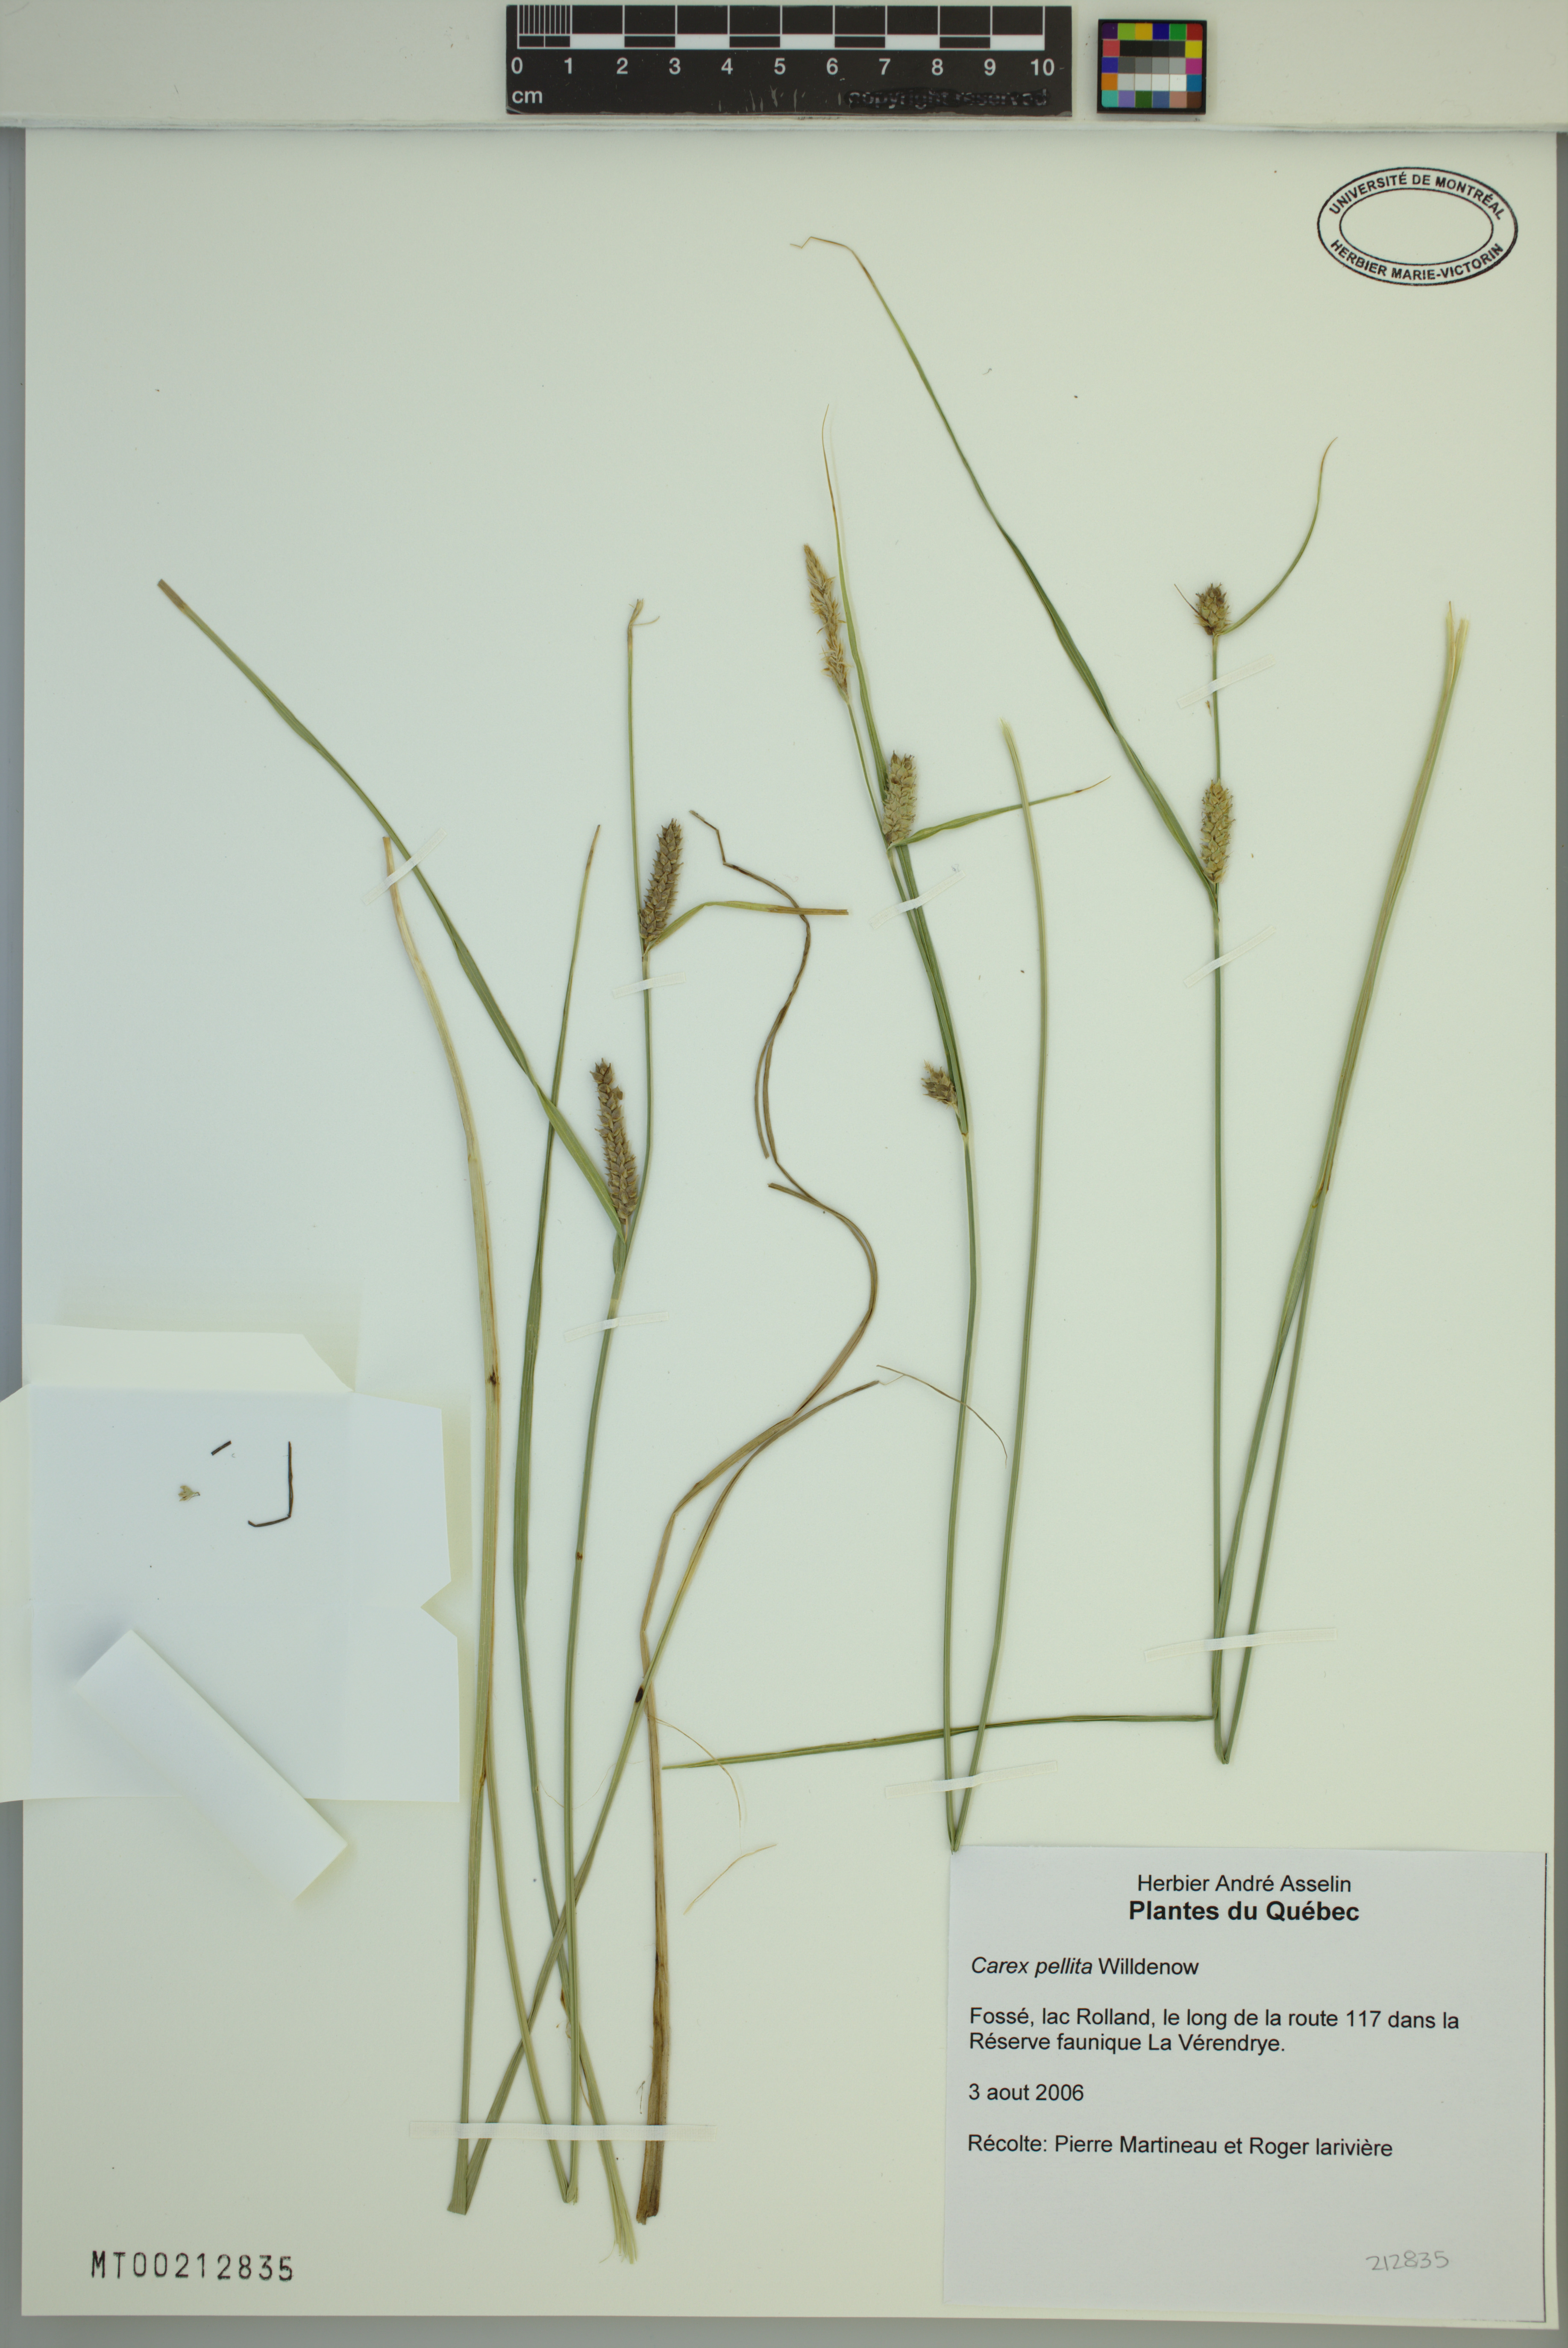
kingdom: Plantae
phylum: Tracheophyta
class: Liliopsida
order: Poales
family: Cyperaceae
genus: Carex
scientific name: Carex pellita
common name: Woolly sedge
